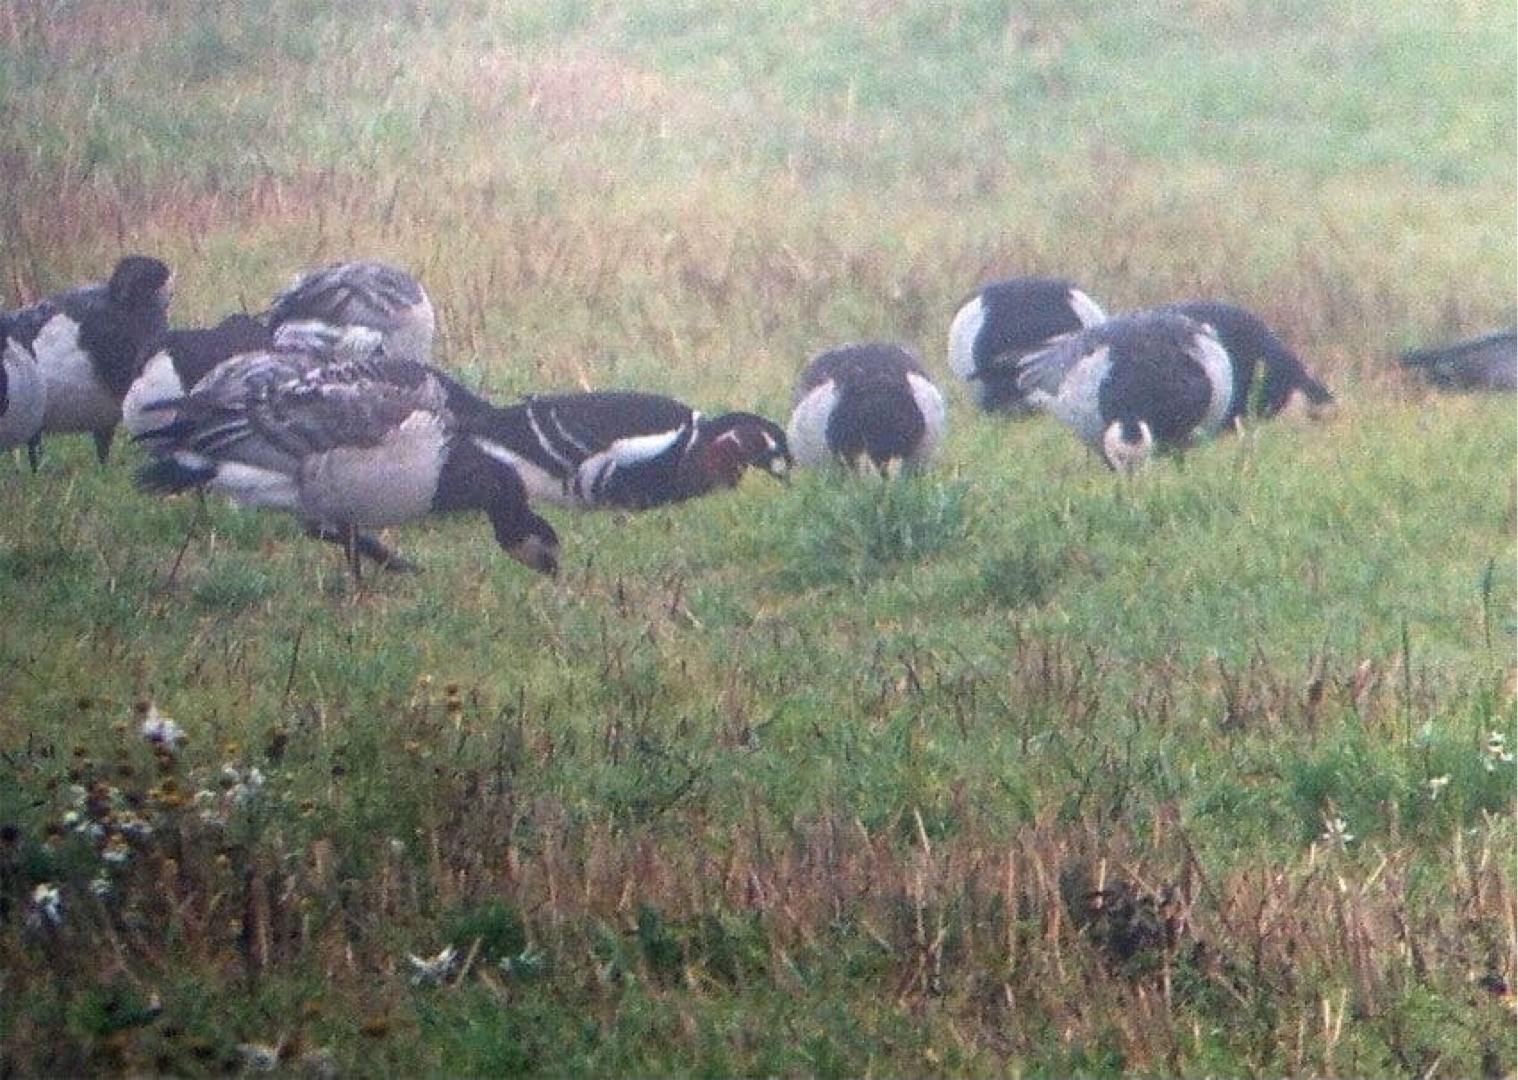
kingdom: Animalia
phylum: Chordata
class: Aves
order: Anseriformes
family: Anatidae
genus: Branta
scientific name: Branta leucopsis
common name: Bramgås
